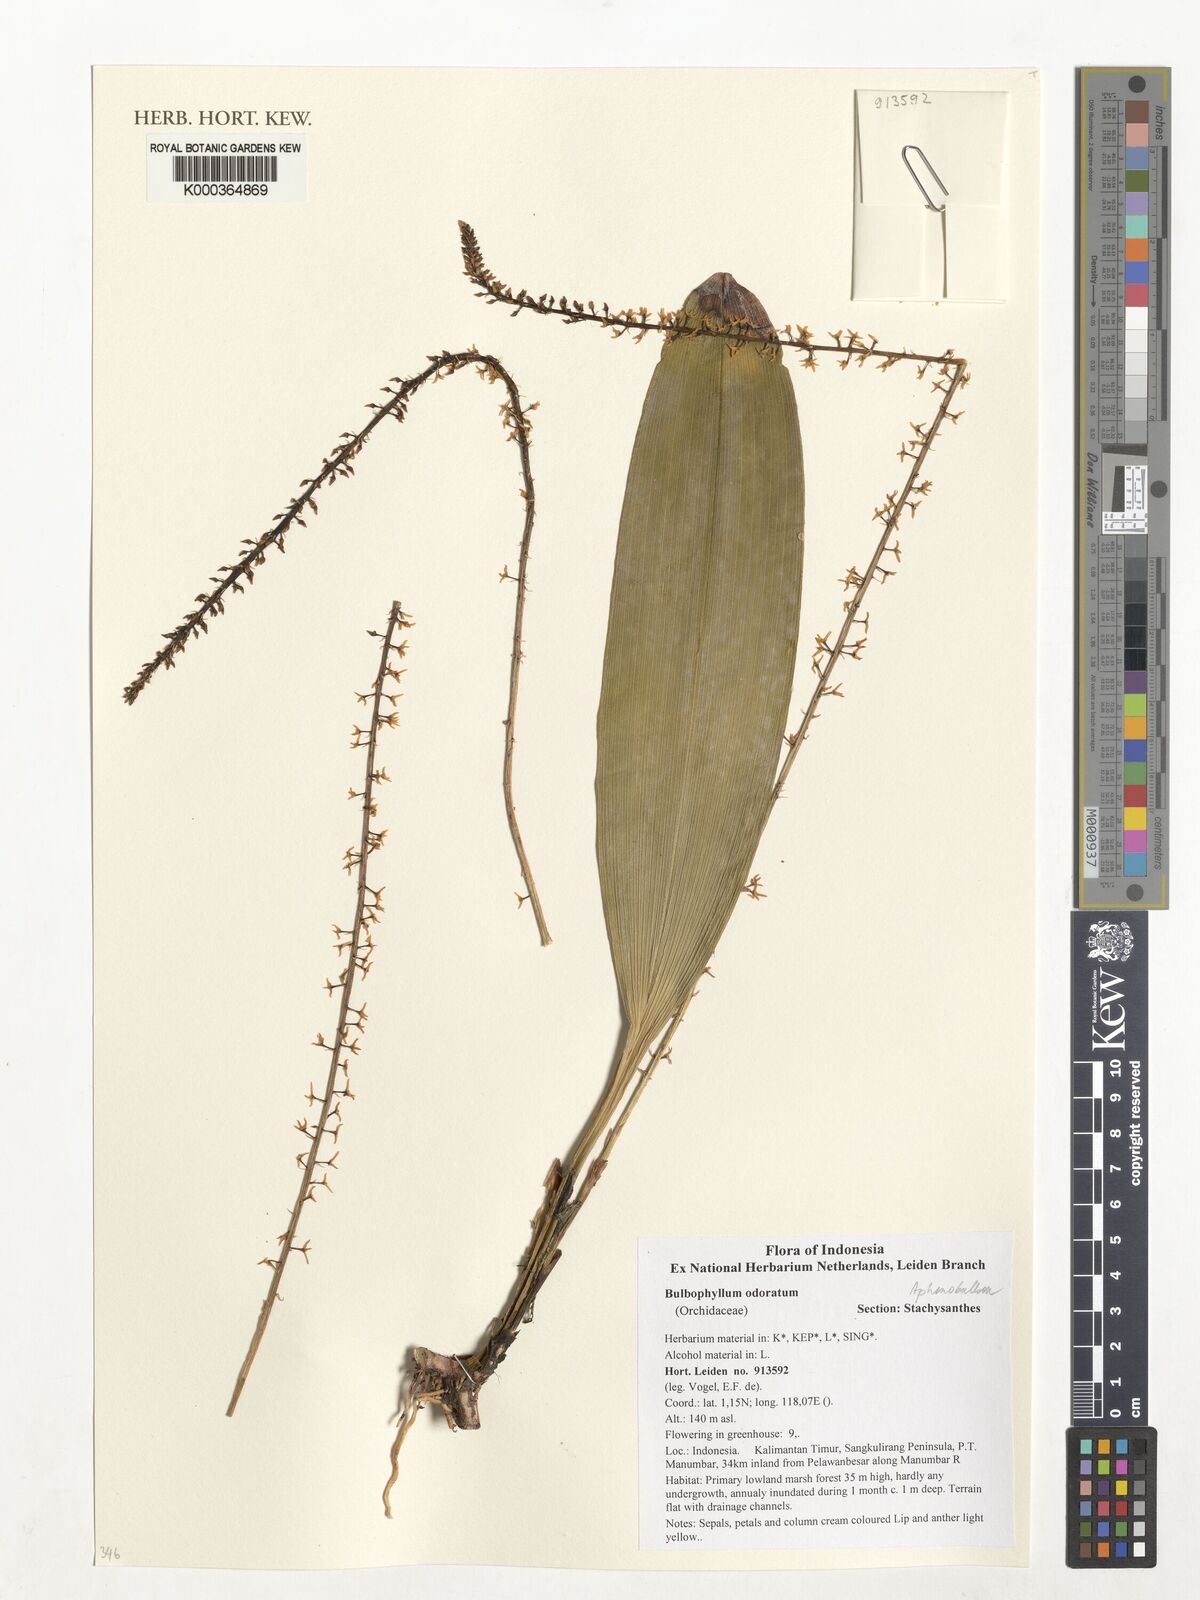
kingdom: Plantae
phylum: Tracheophyta
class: Liliopsida
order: Asparagales
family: Orchidaceae
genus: Bulbophyllum
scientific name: Bulbophyllum odoratum
